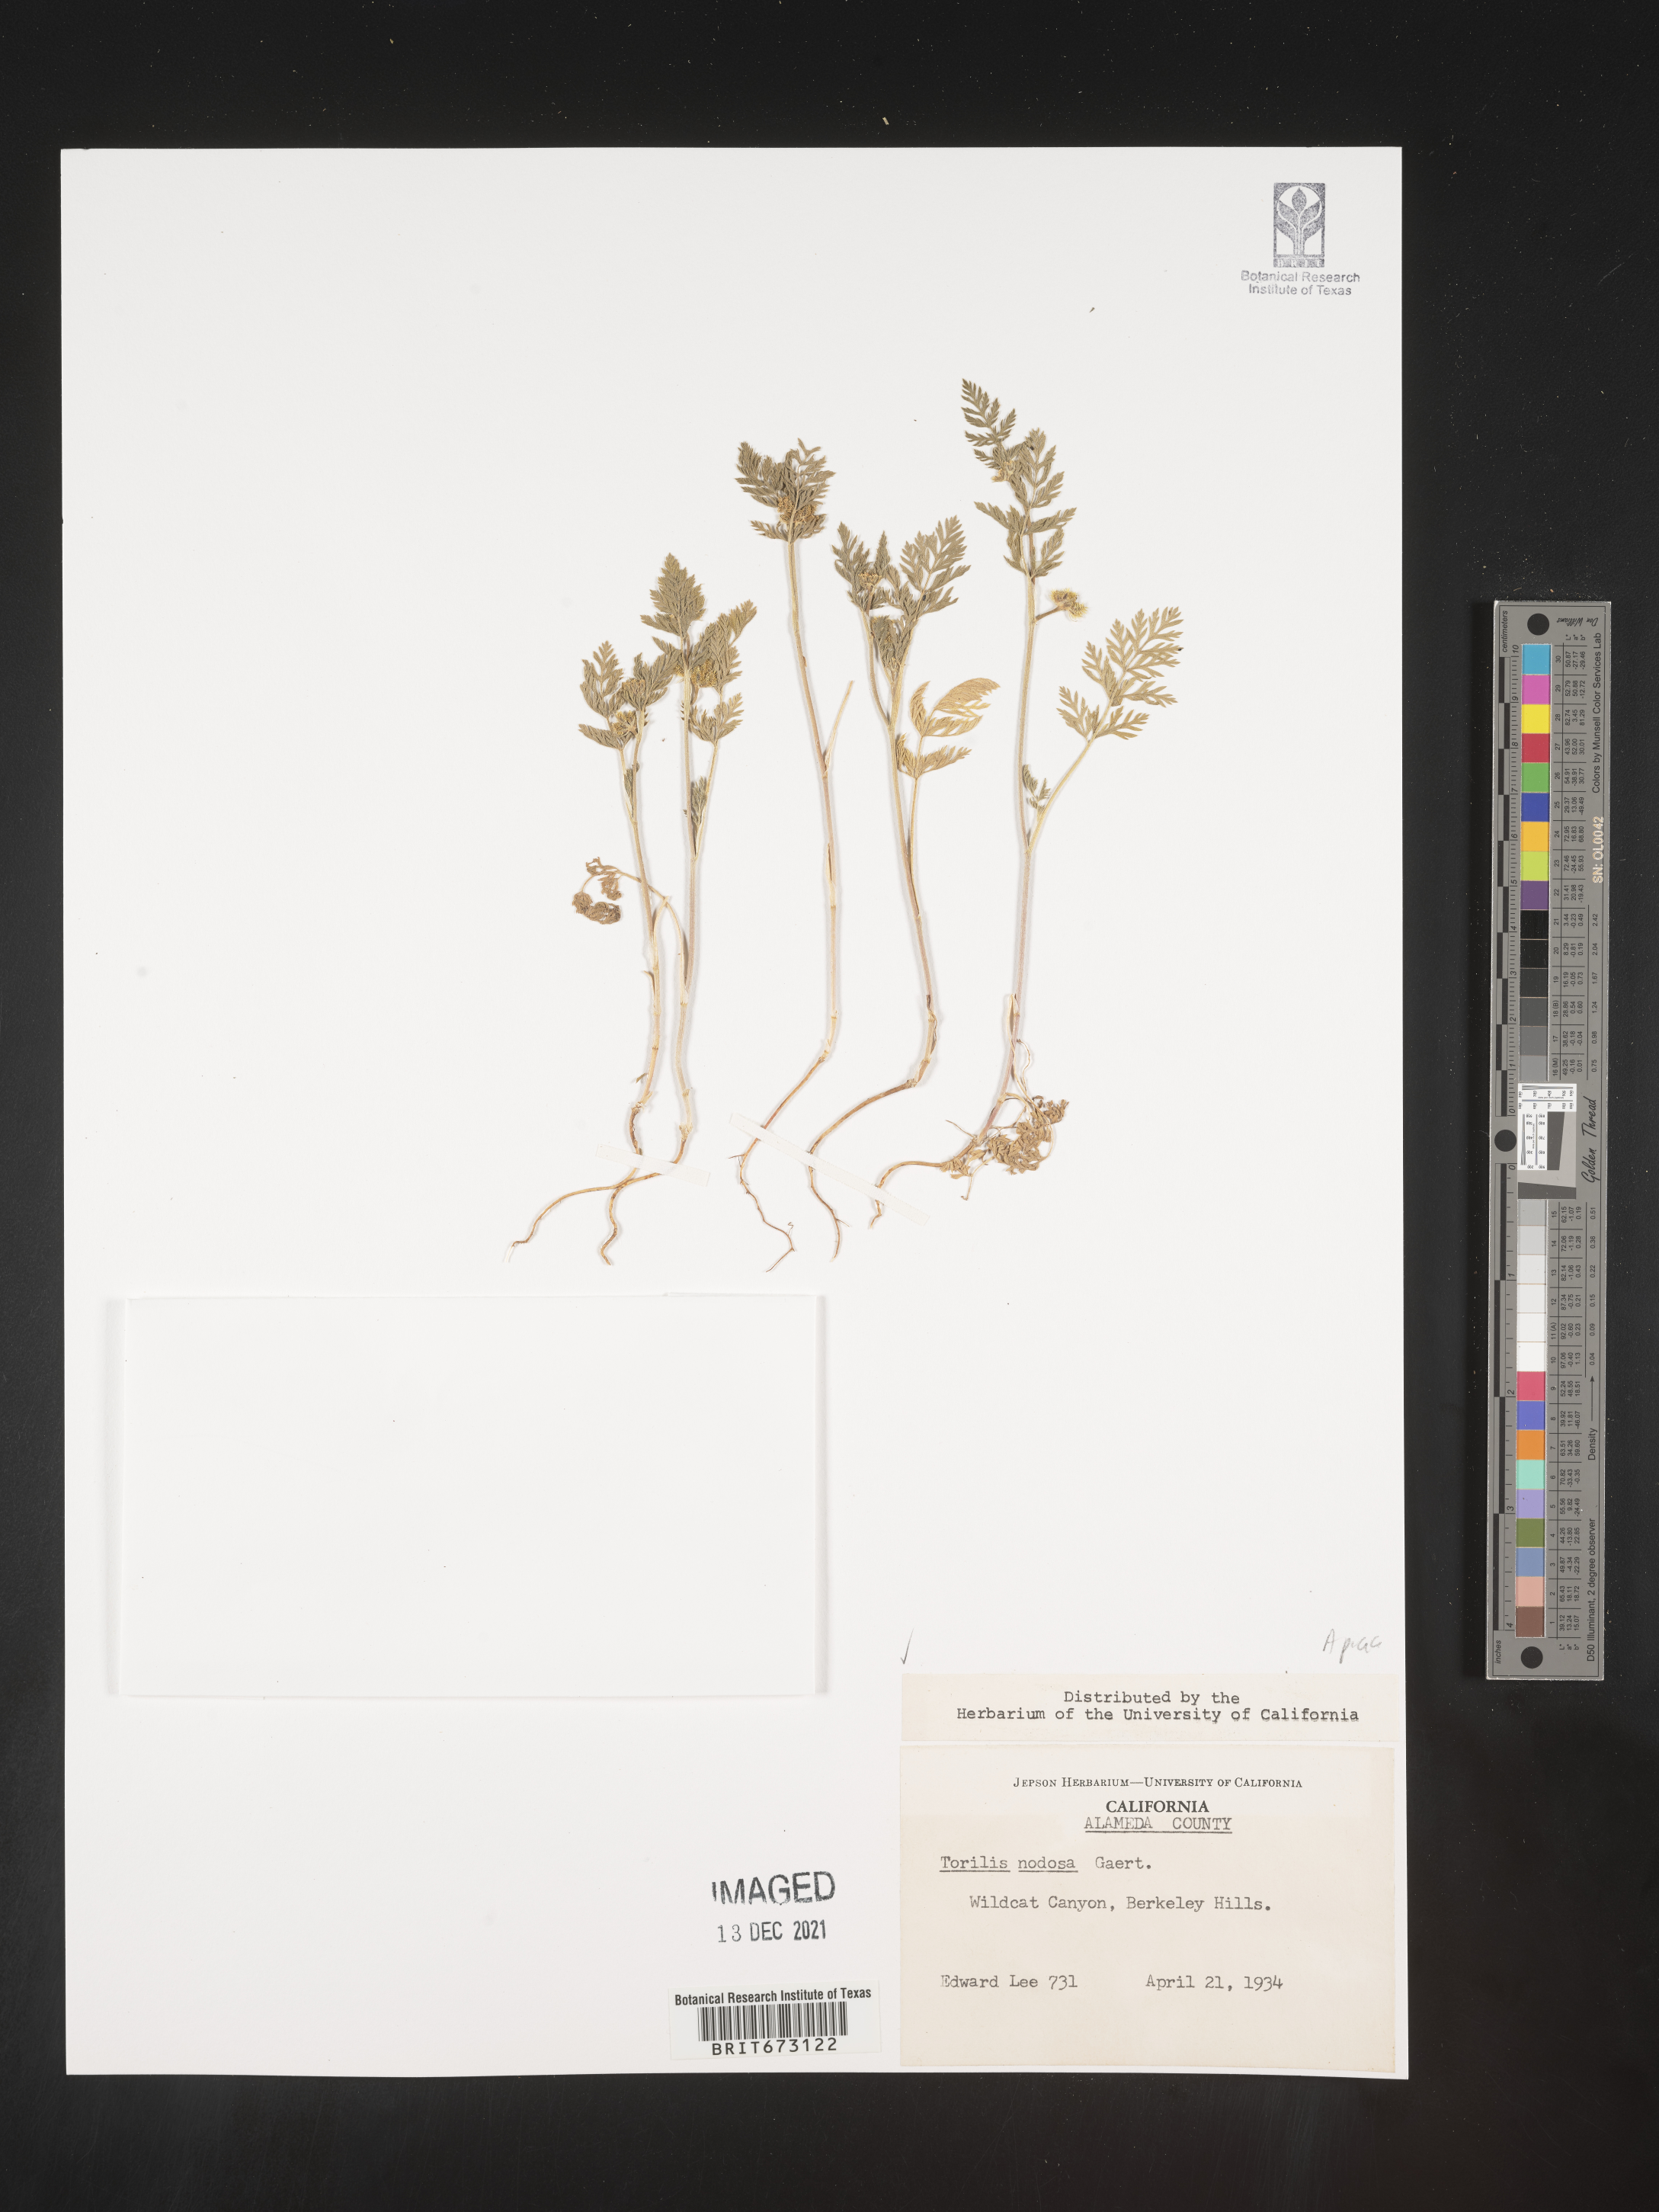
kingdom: Plantae
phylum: Tracheophyta
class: Magnoliopsida
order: Apiales
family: Apiaceae
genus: Torilis
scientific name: Torilis nodosa
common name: Knotted hedge-parsley
